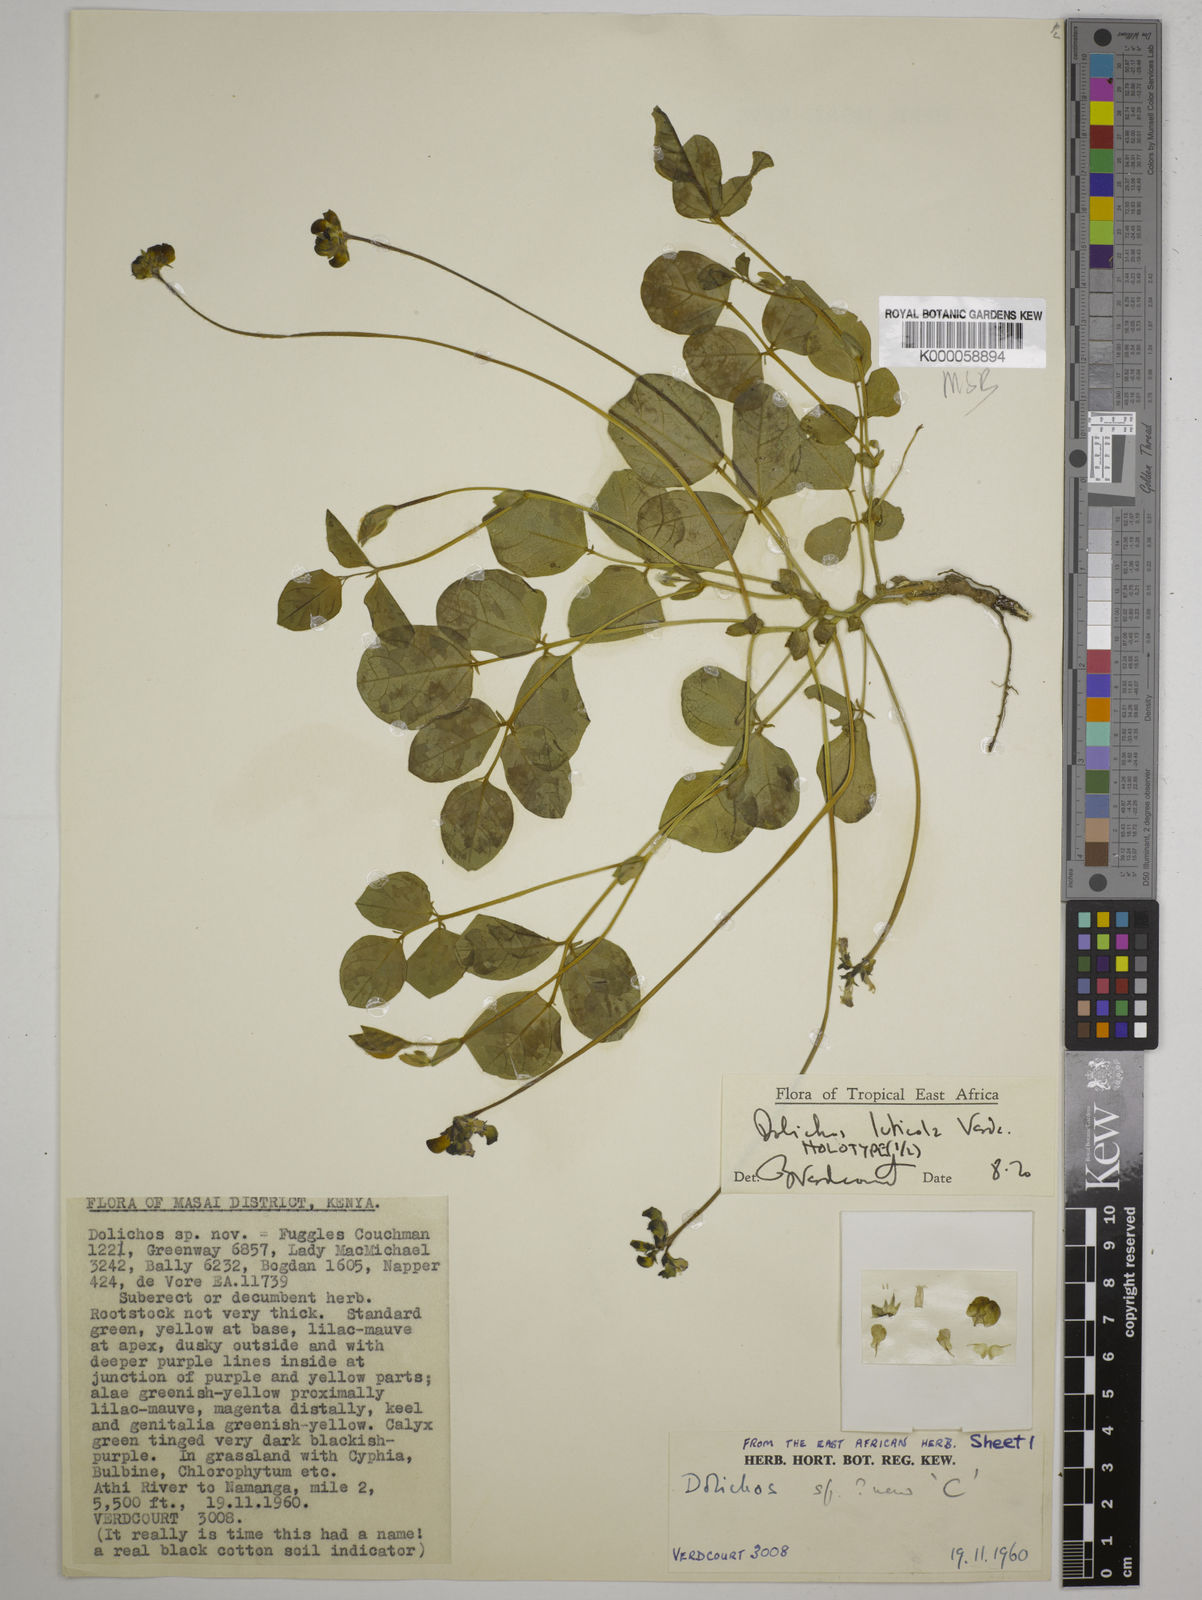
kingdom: Plantae
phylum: Tracheophyta
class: Magnoliopsida
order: Fabales
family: Fabaceae
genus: Dolichos
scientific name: Dolichos luticola
